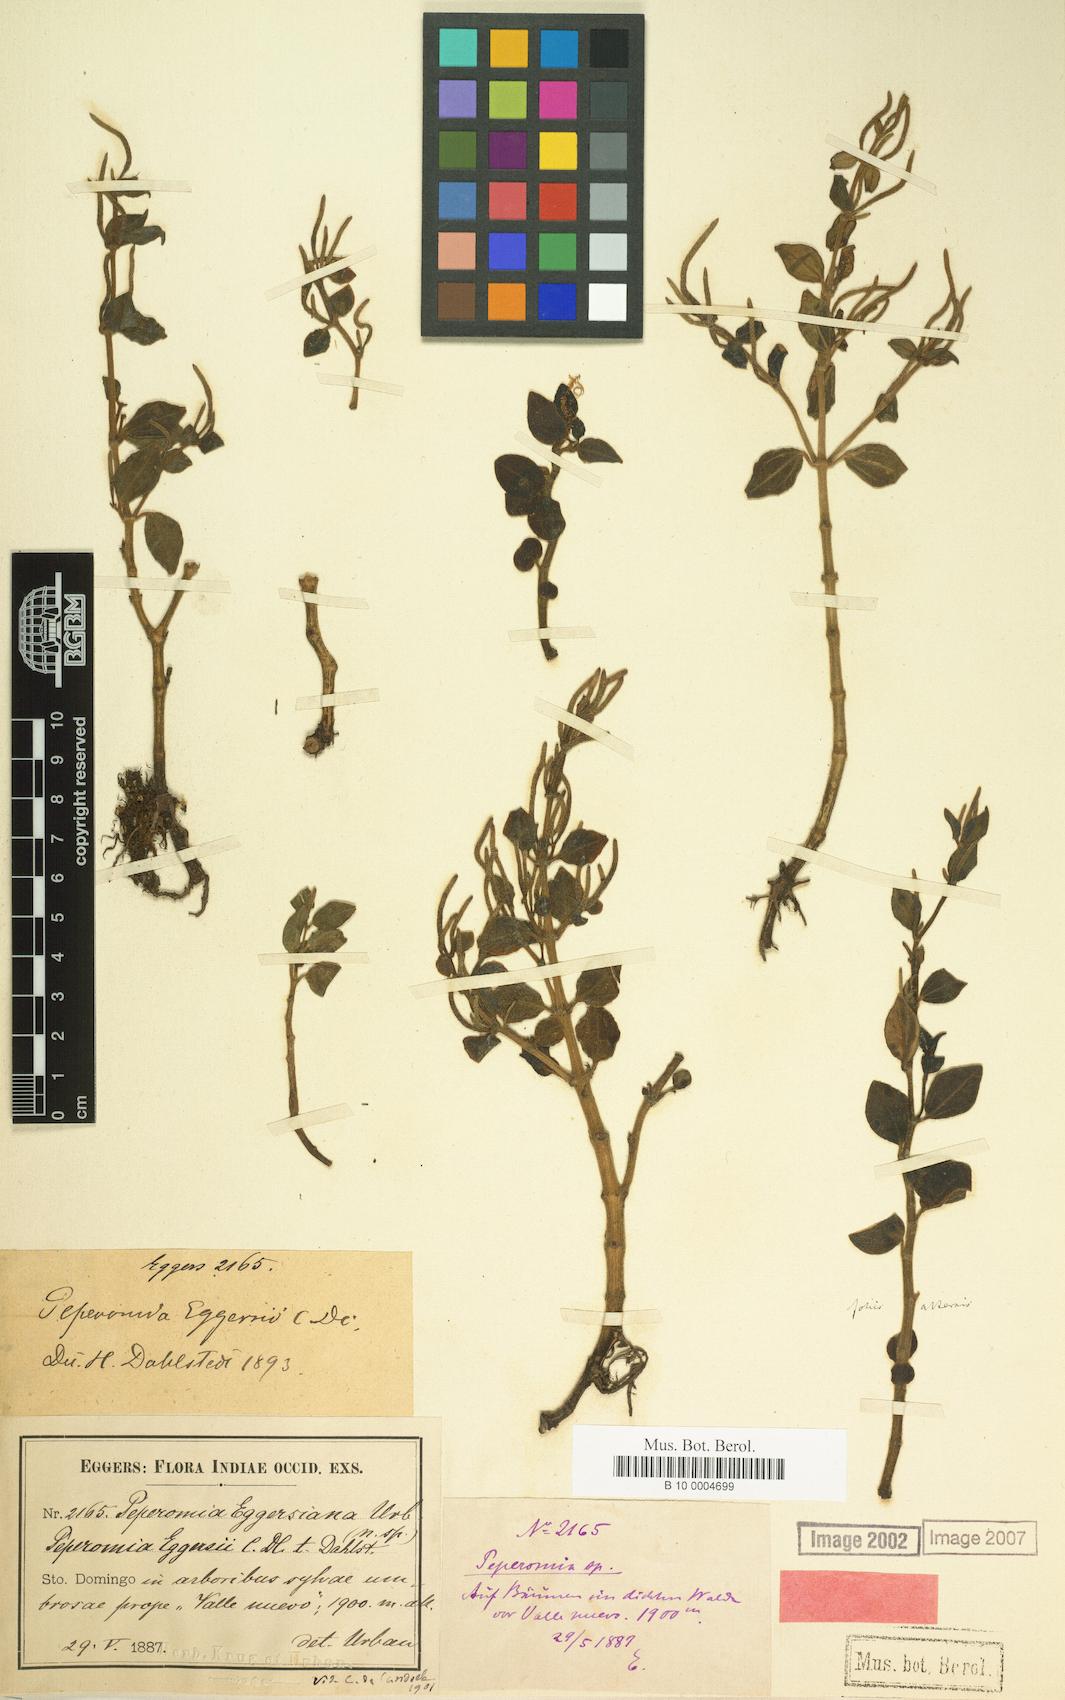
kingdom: Plantae
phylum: Tracheophyta
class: Magnoliopsida
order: Piperales
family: Piperaceae
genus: Peperomia
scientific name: Peperomia eggersii
